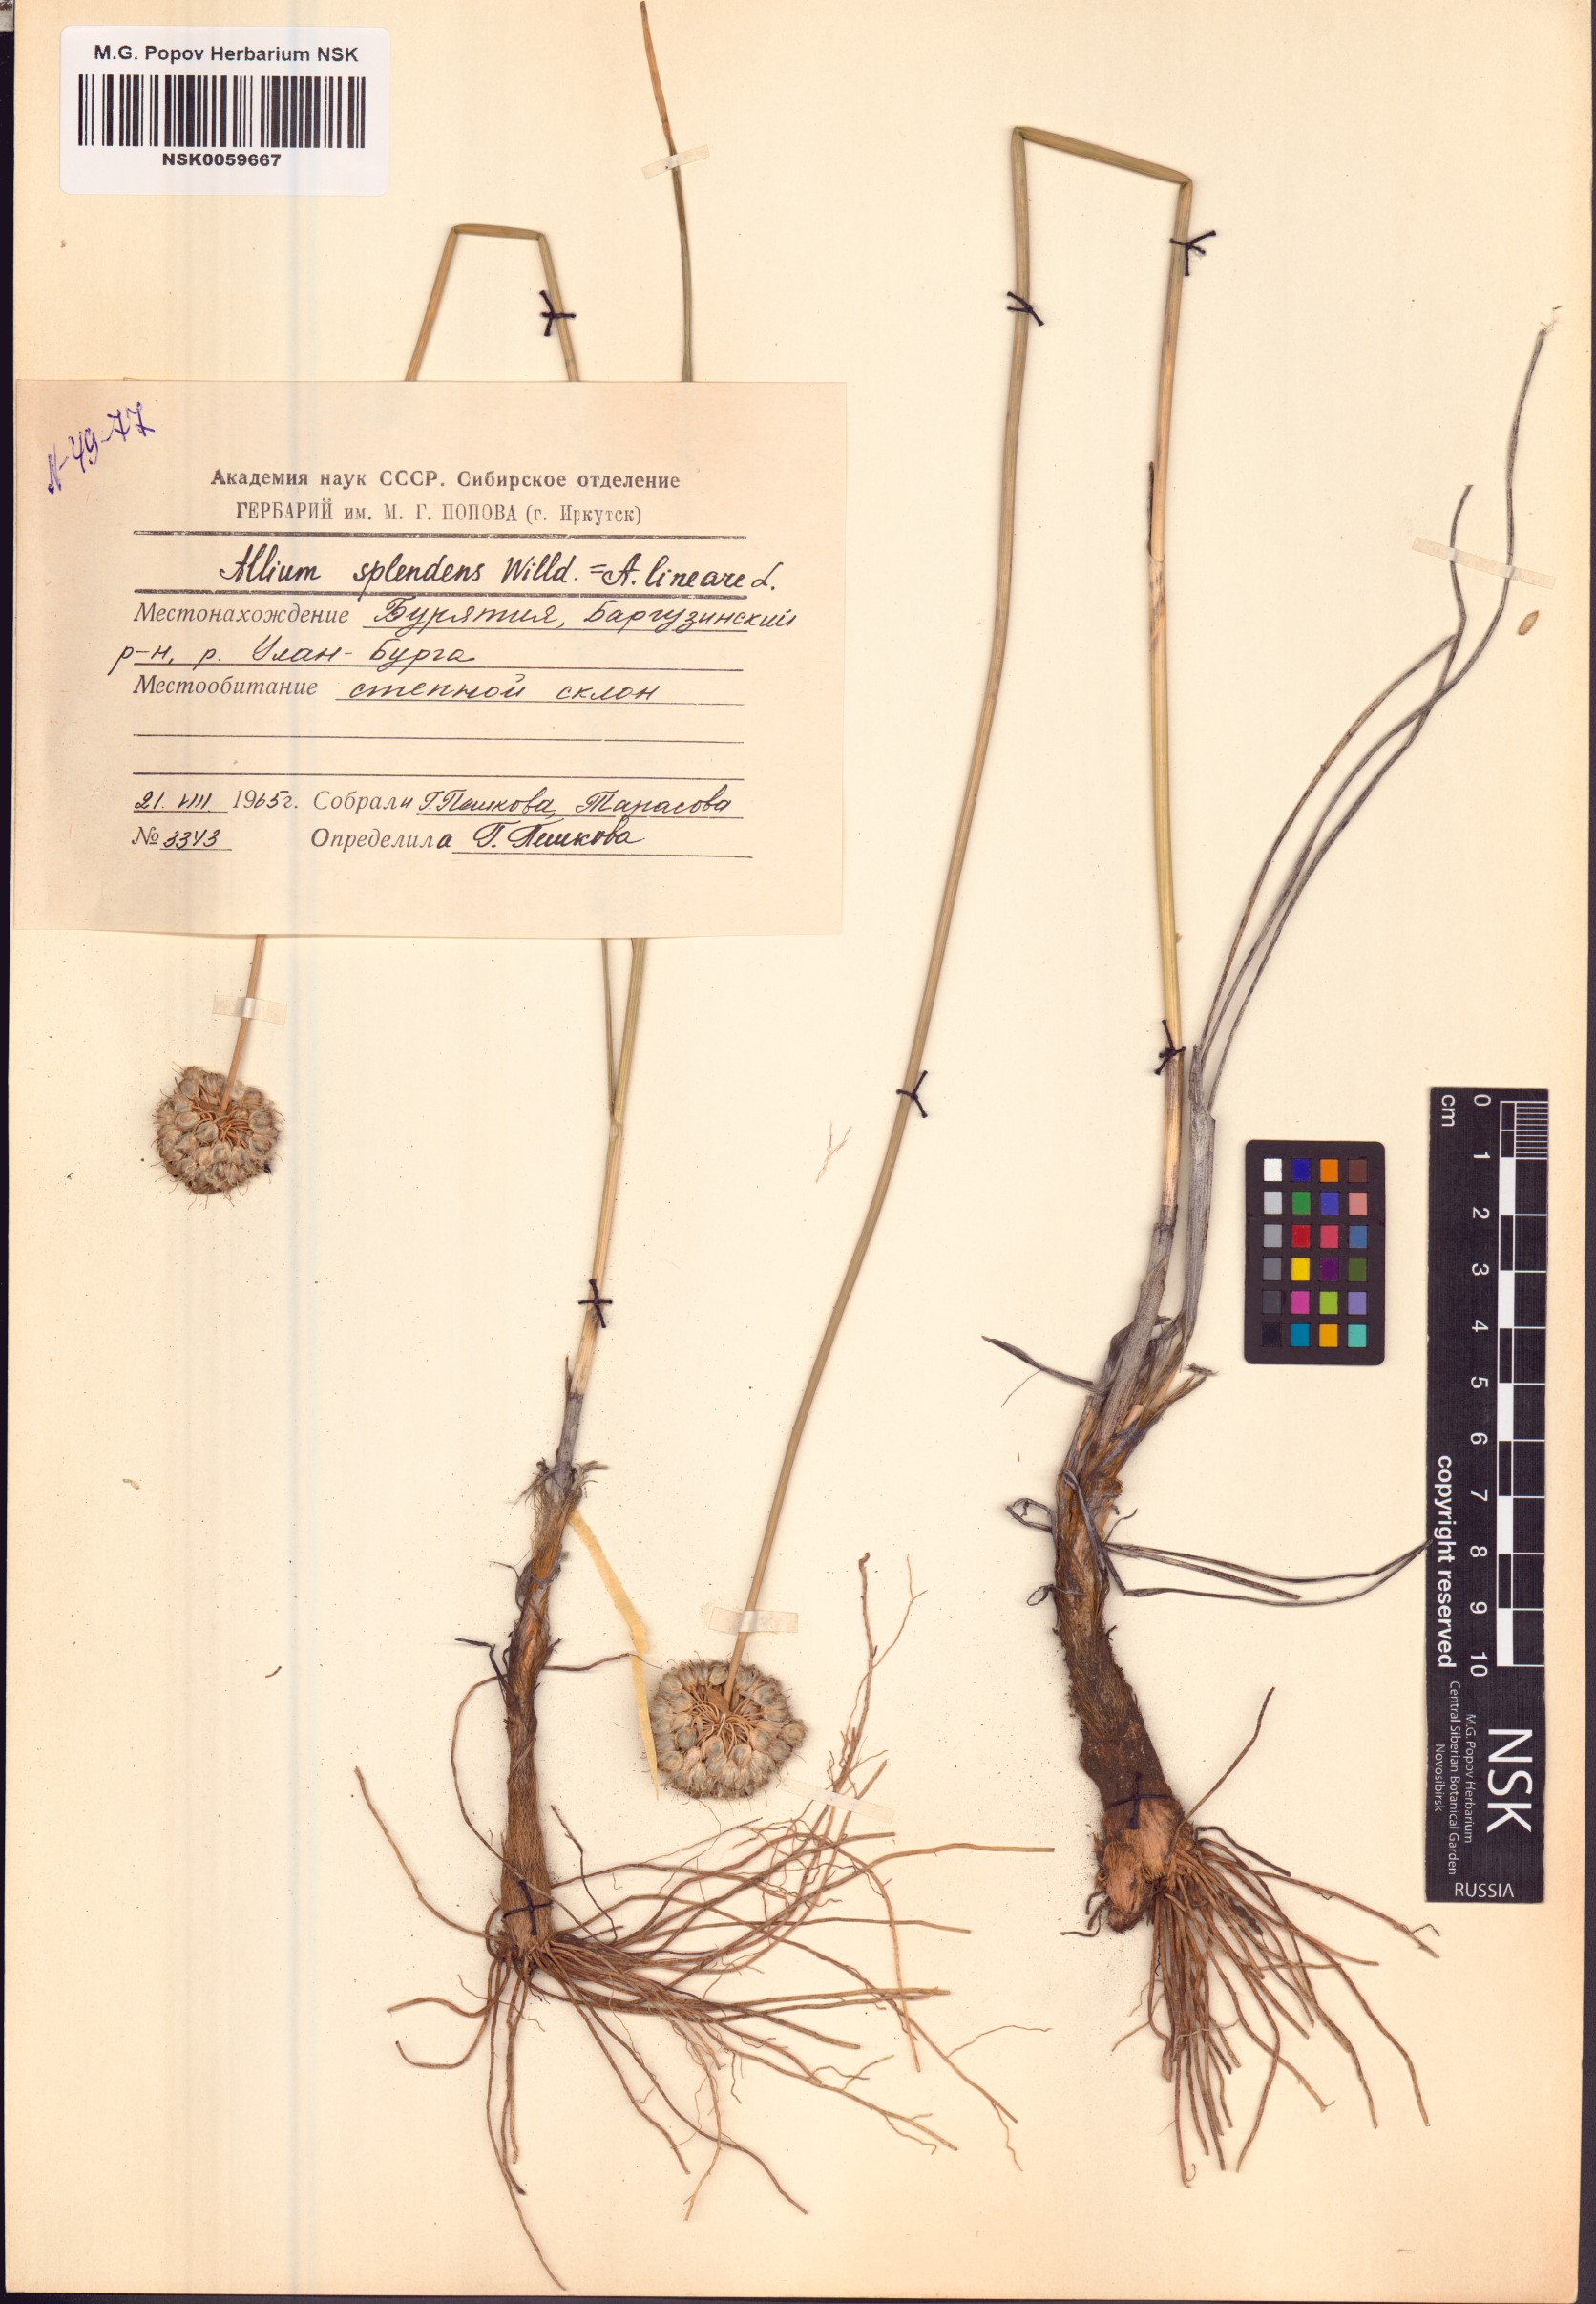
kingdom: Plantae
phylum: Tracheophyta
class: Liliopsida
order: Asparagales
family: Amaryllidaceae
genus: Allium
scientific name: Allium splendens
